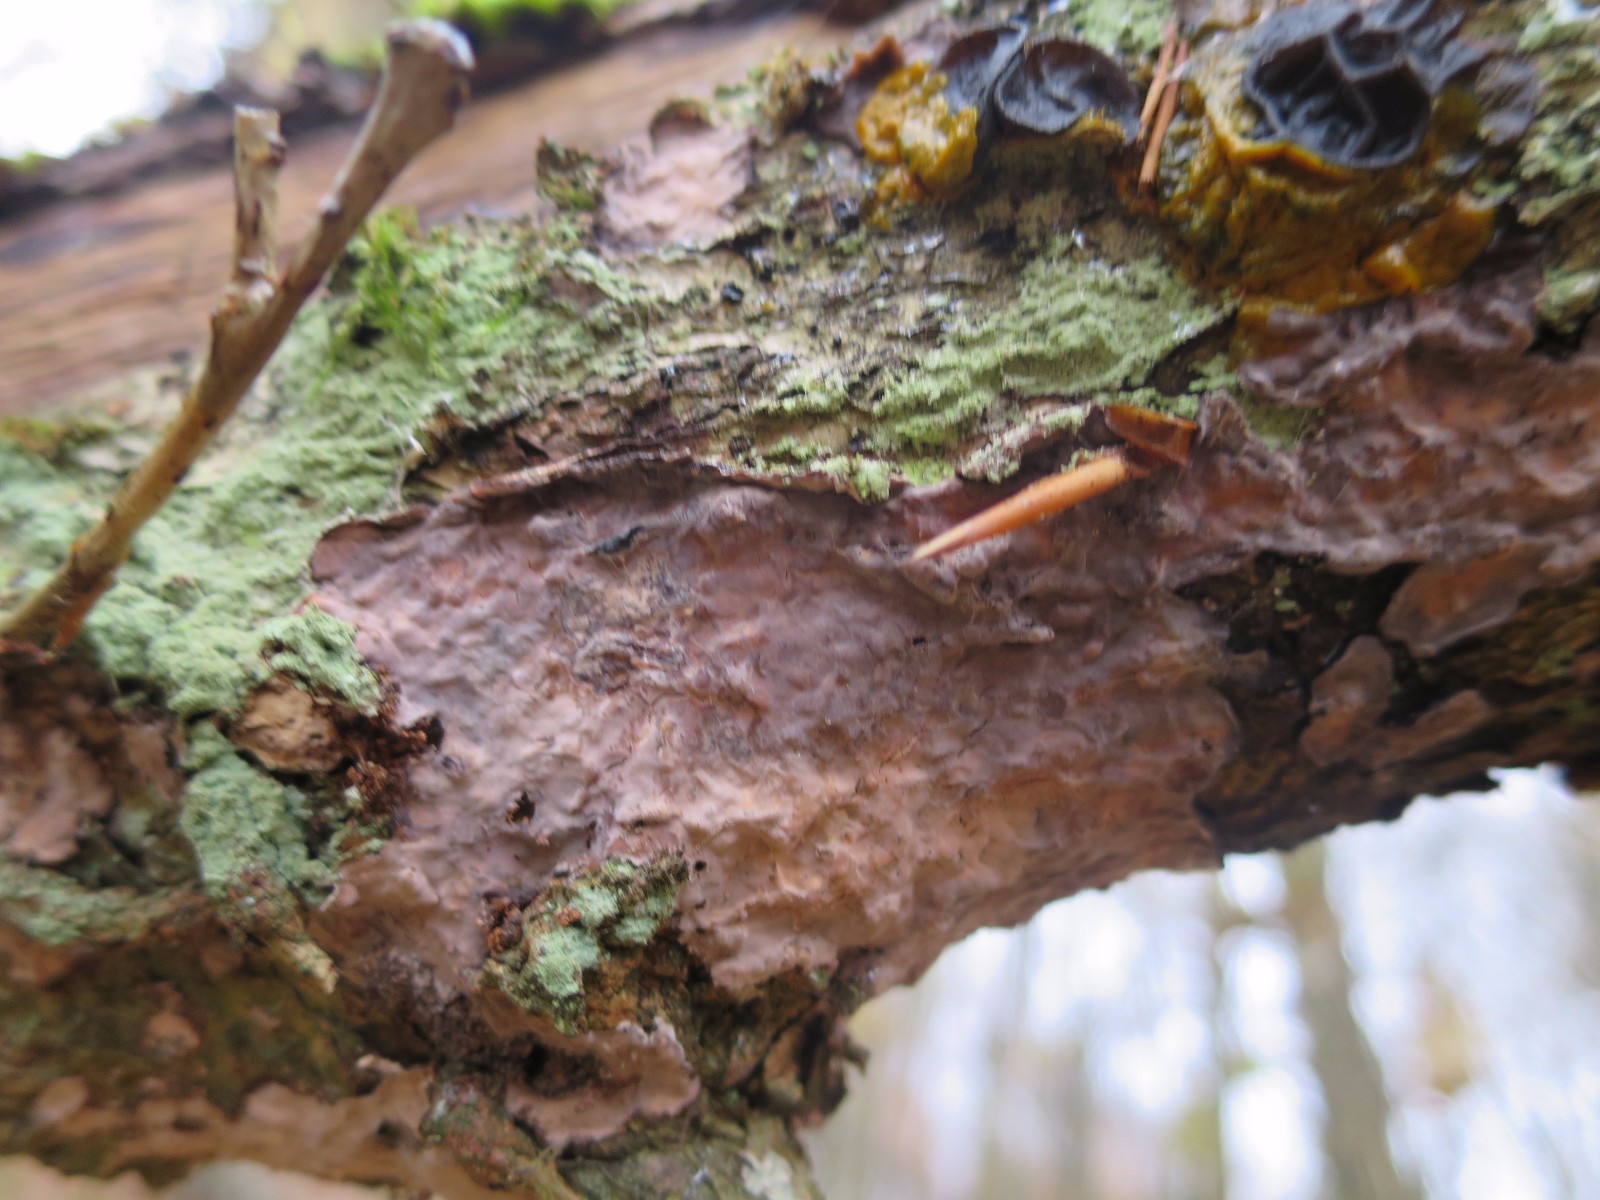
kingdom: Fungi
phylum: Basidiomycota
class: Agaricomycetes
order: Russulales
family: Peniophoraceae
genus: Peniophora
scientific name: Peniophora quercina
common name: ege-voksskind
